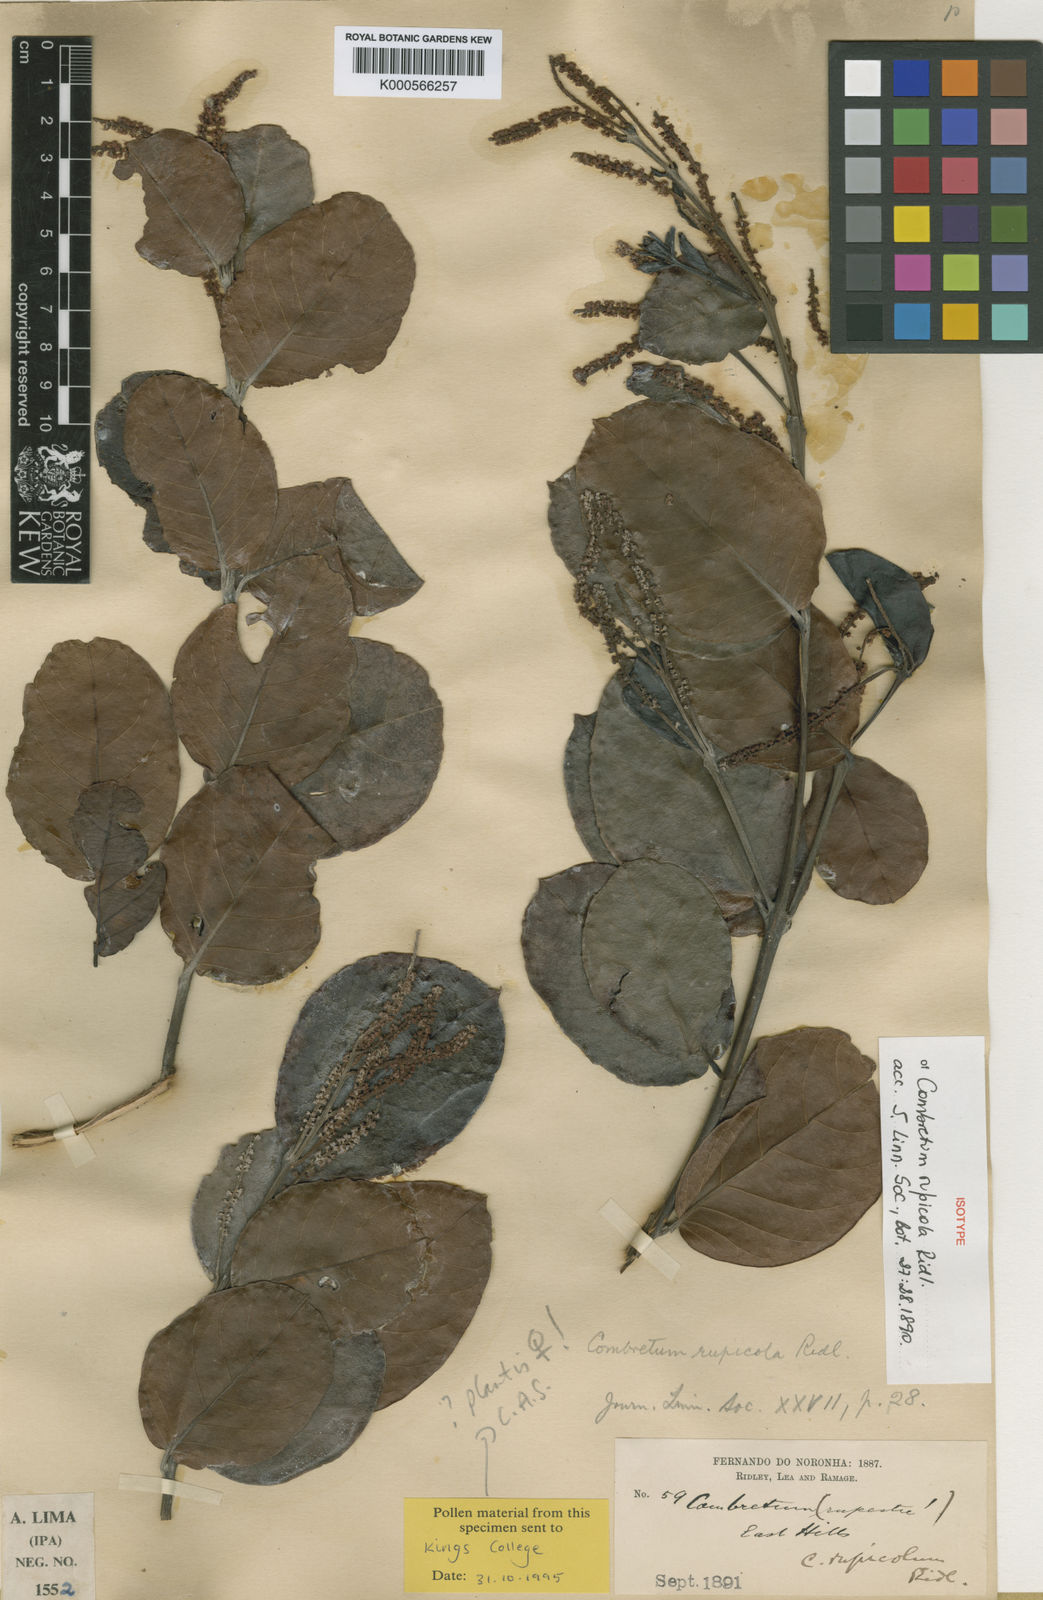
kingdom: Plantae
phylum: Tracheophyta
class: Magnoliopsida
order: Myrtales
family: Combretaceae
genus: Combretum
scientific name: Combretum rupicola
